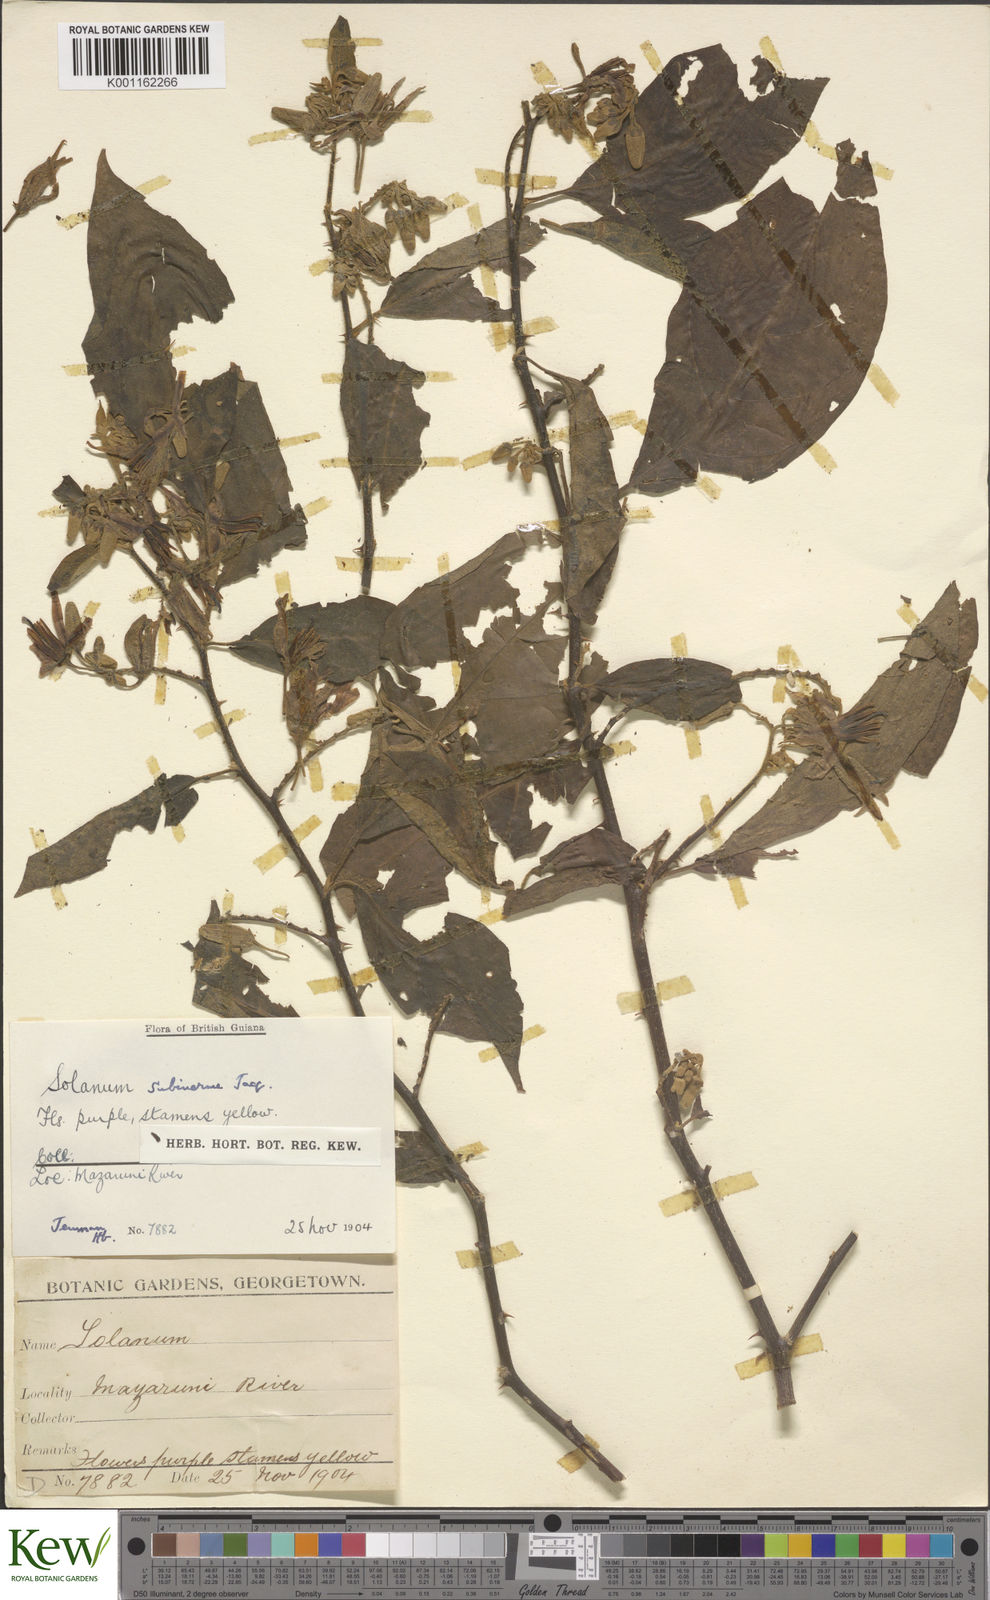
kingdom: Plantae
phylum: Tracheophyta
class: Magnoliopsida
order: Solanales
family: Solanaceae
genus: Solanum
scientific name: Solanum subinerme
